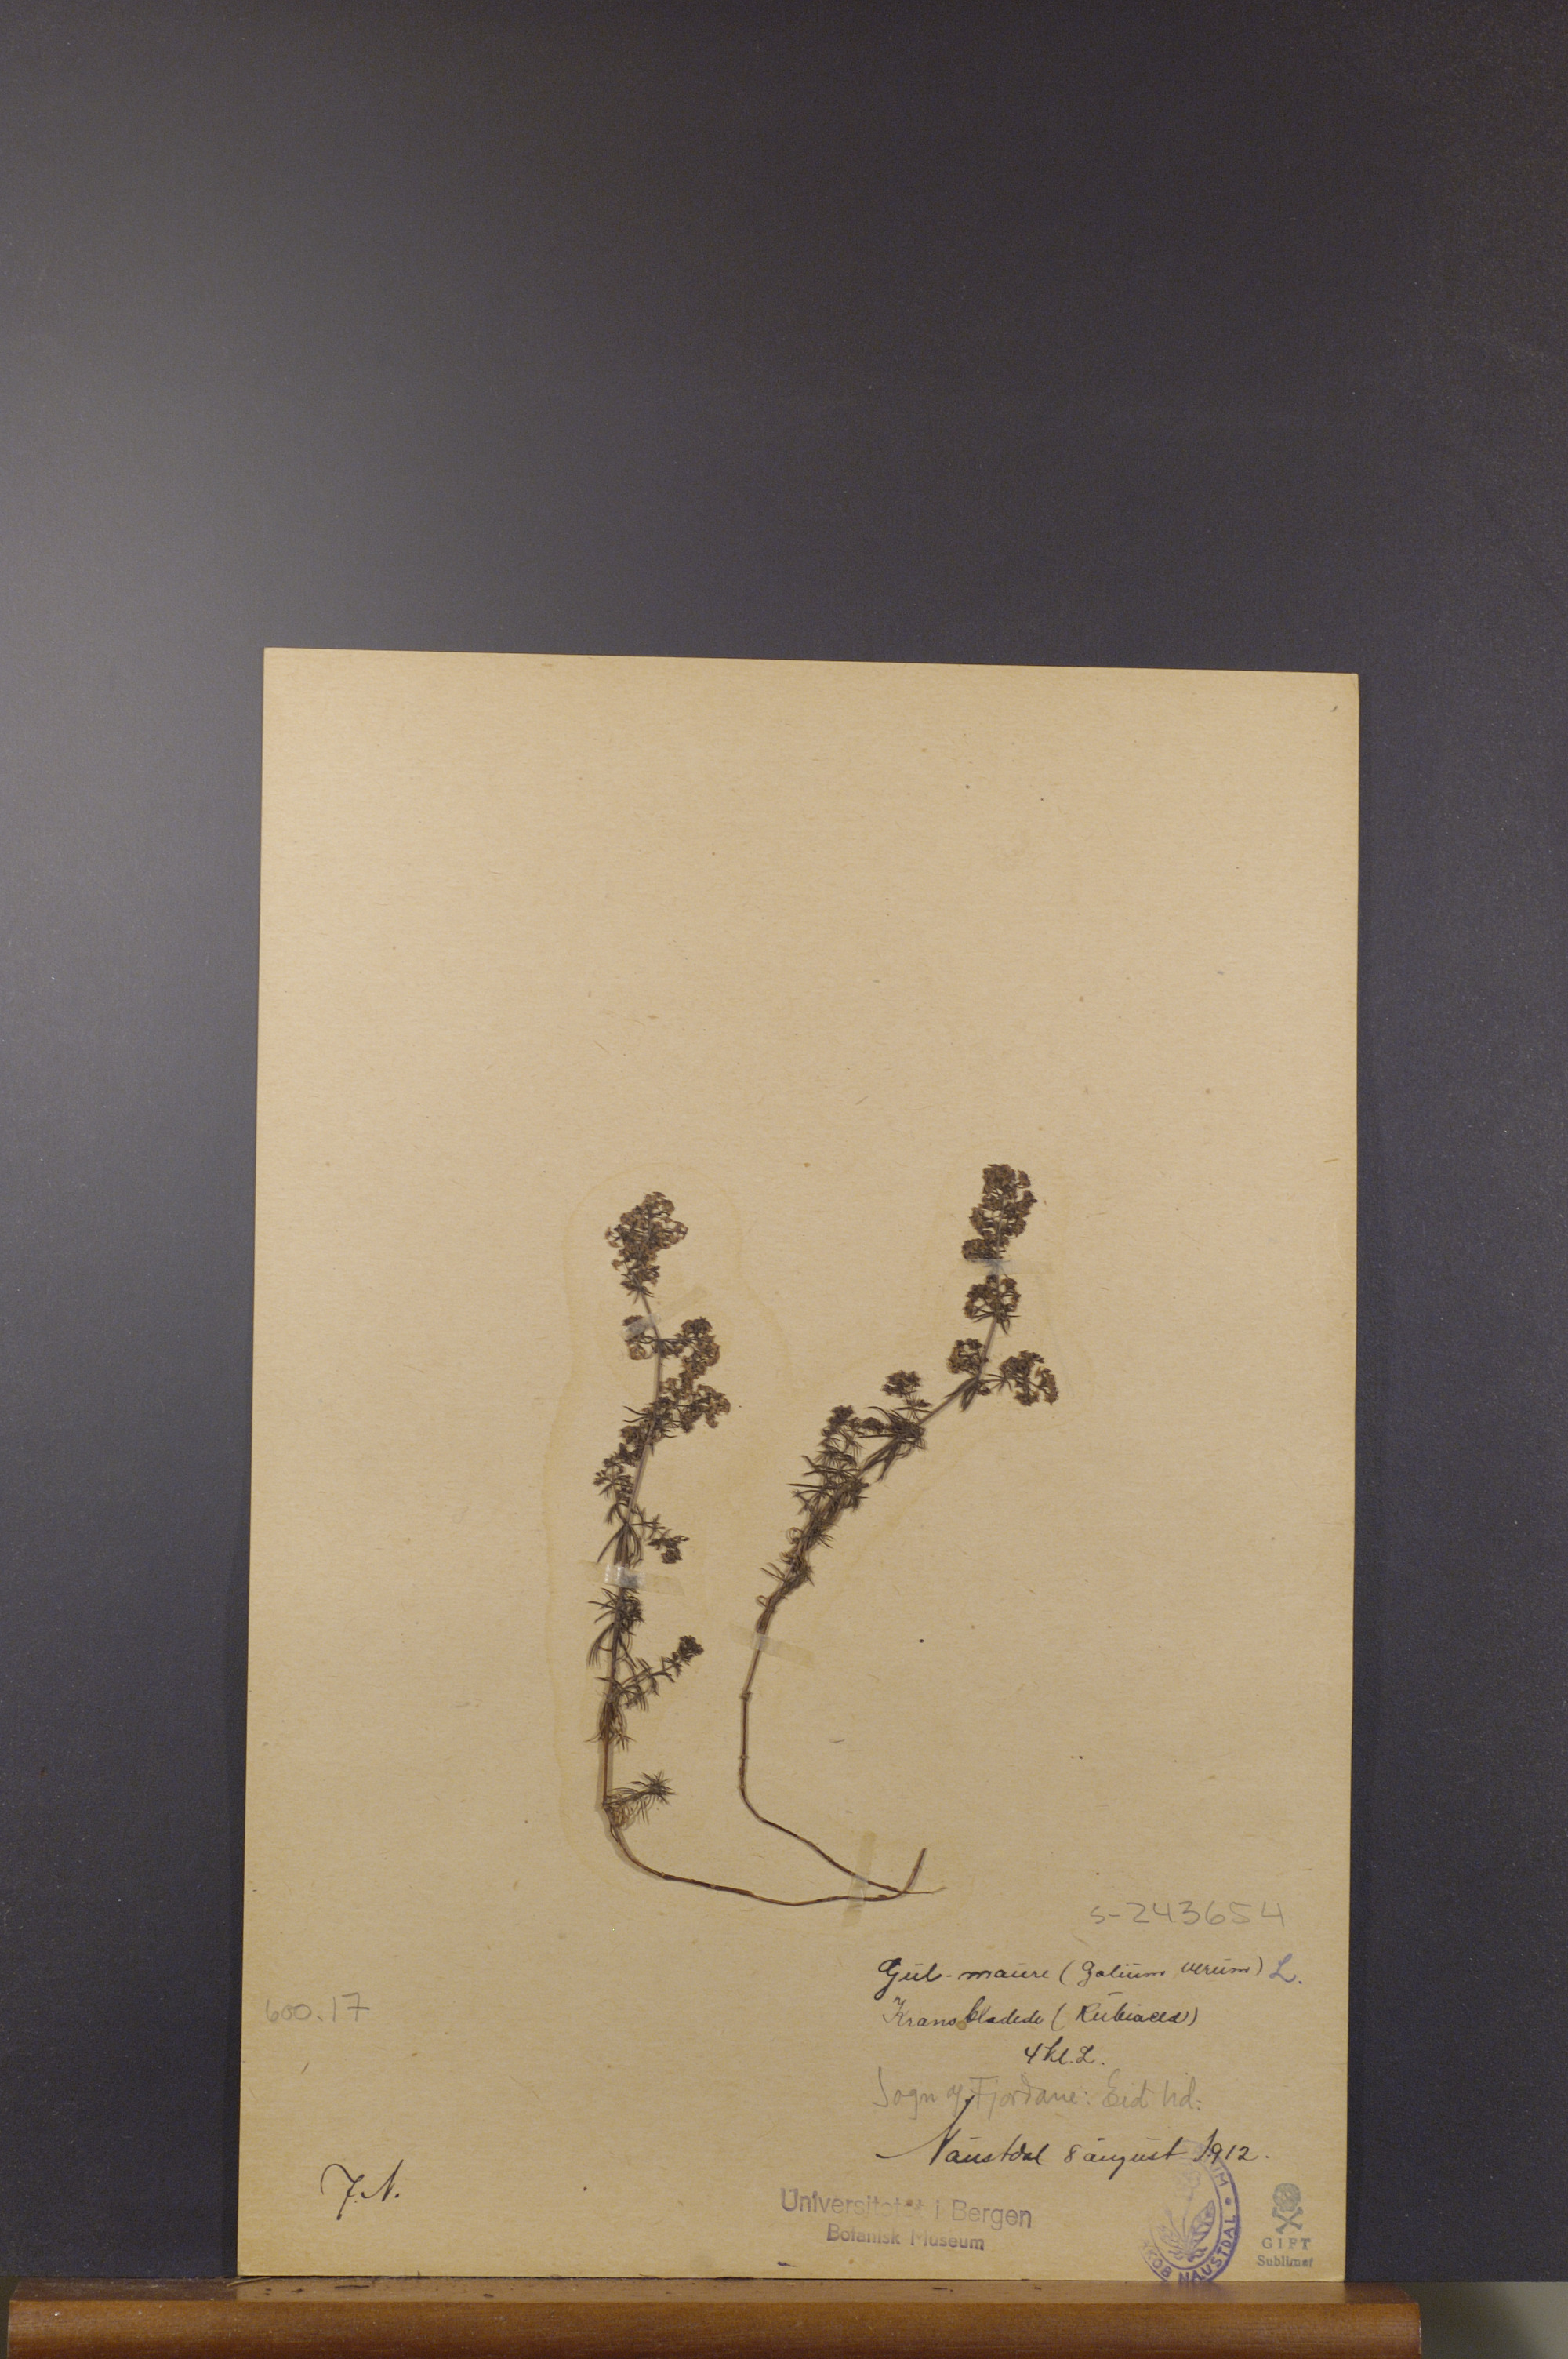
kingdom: Plantae
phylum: Tracheophyta
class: Magnoliopsida
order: Gentianales
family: Rubiaceae
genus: Galium
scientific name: Galium verum
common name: Lady's bedstraw
